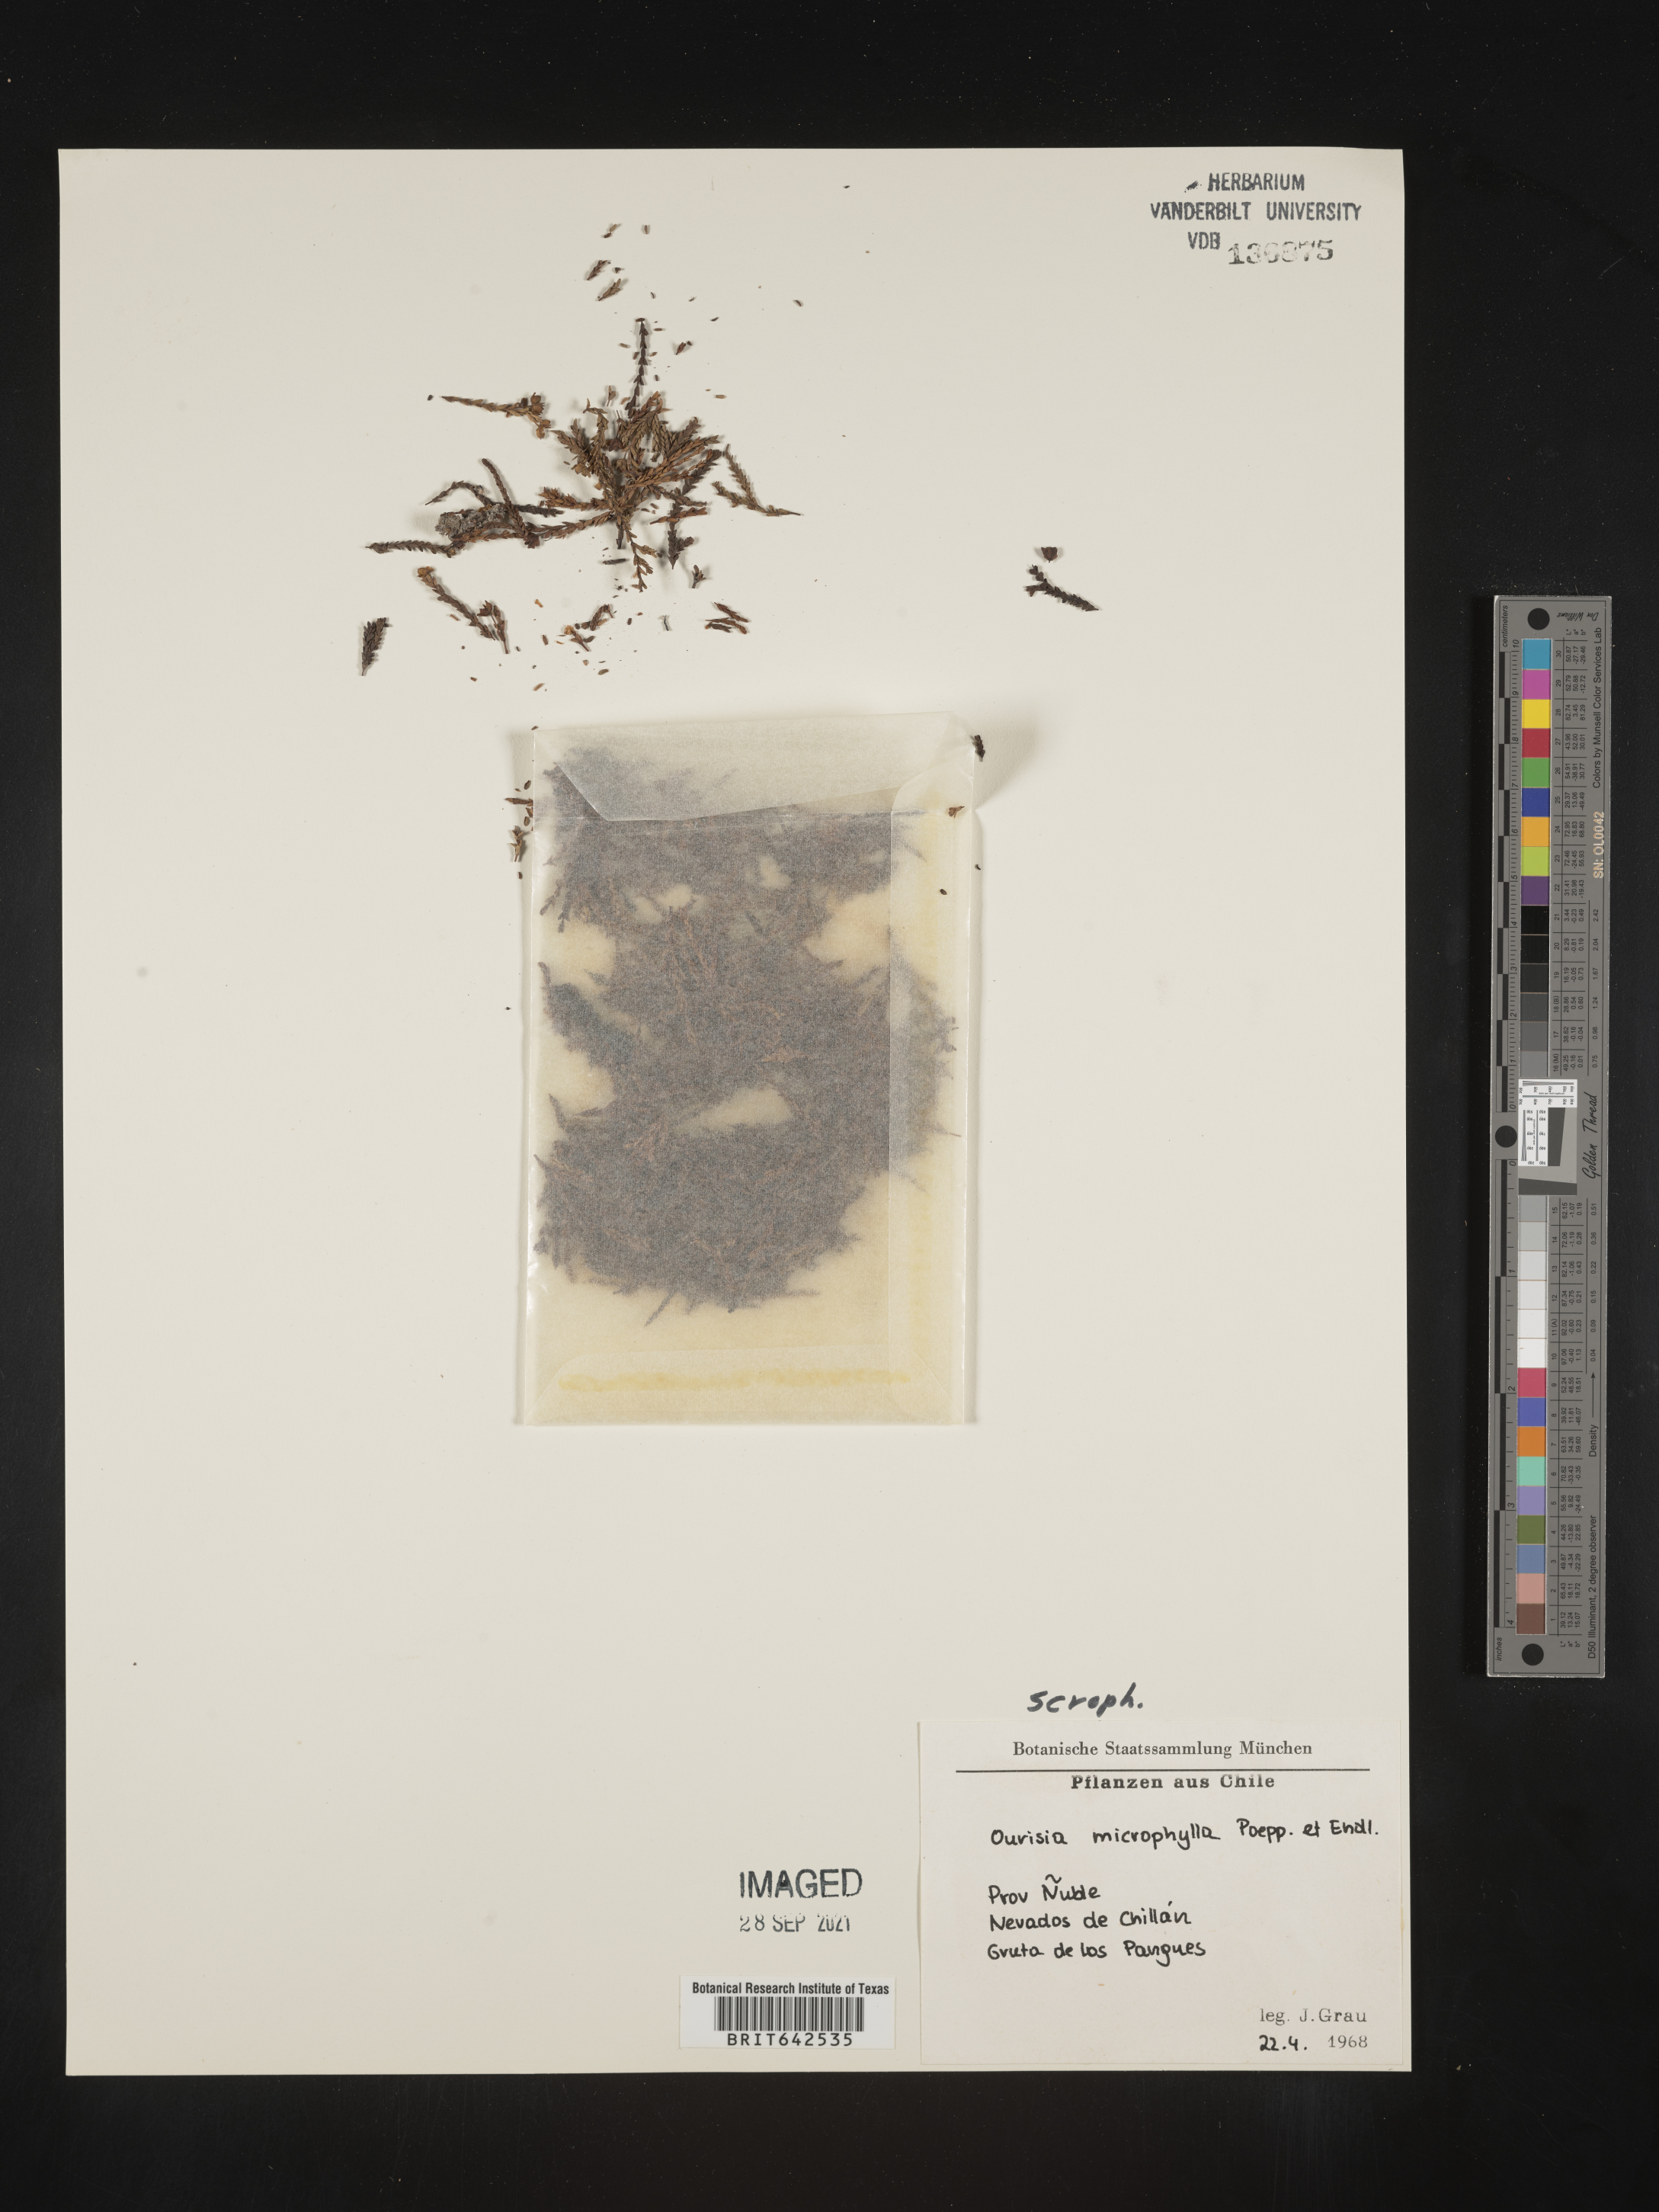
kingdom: Plantae
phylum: Tracheophyta
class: Magnoliopsida
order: Lamiales
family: Plantaginaceae
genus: Ourisia
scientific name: Ourisia
